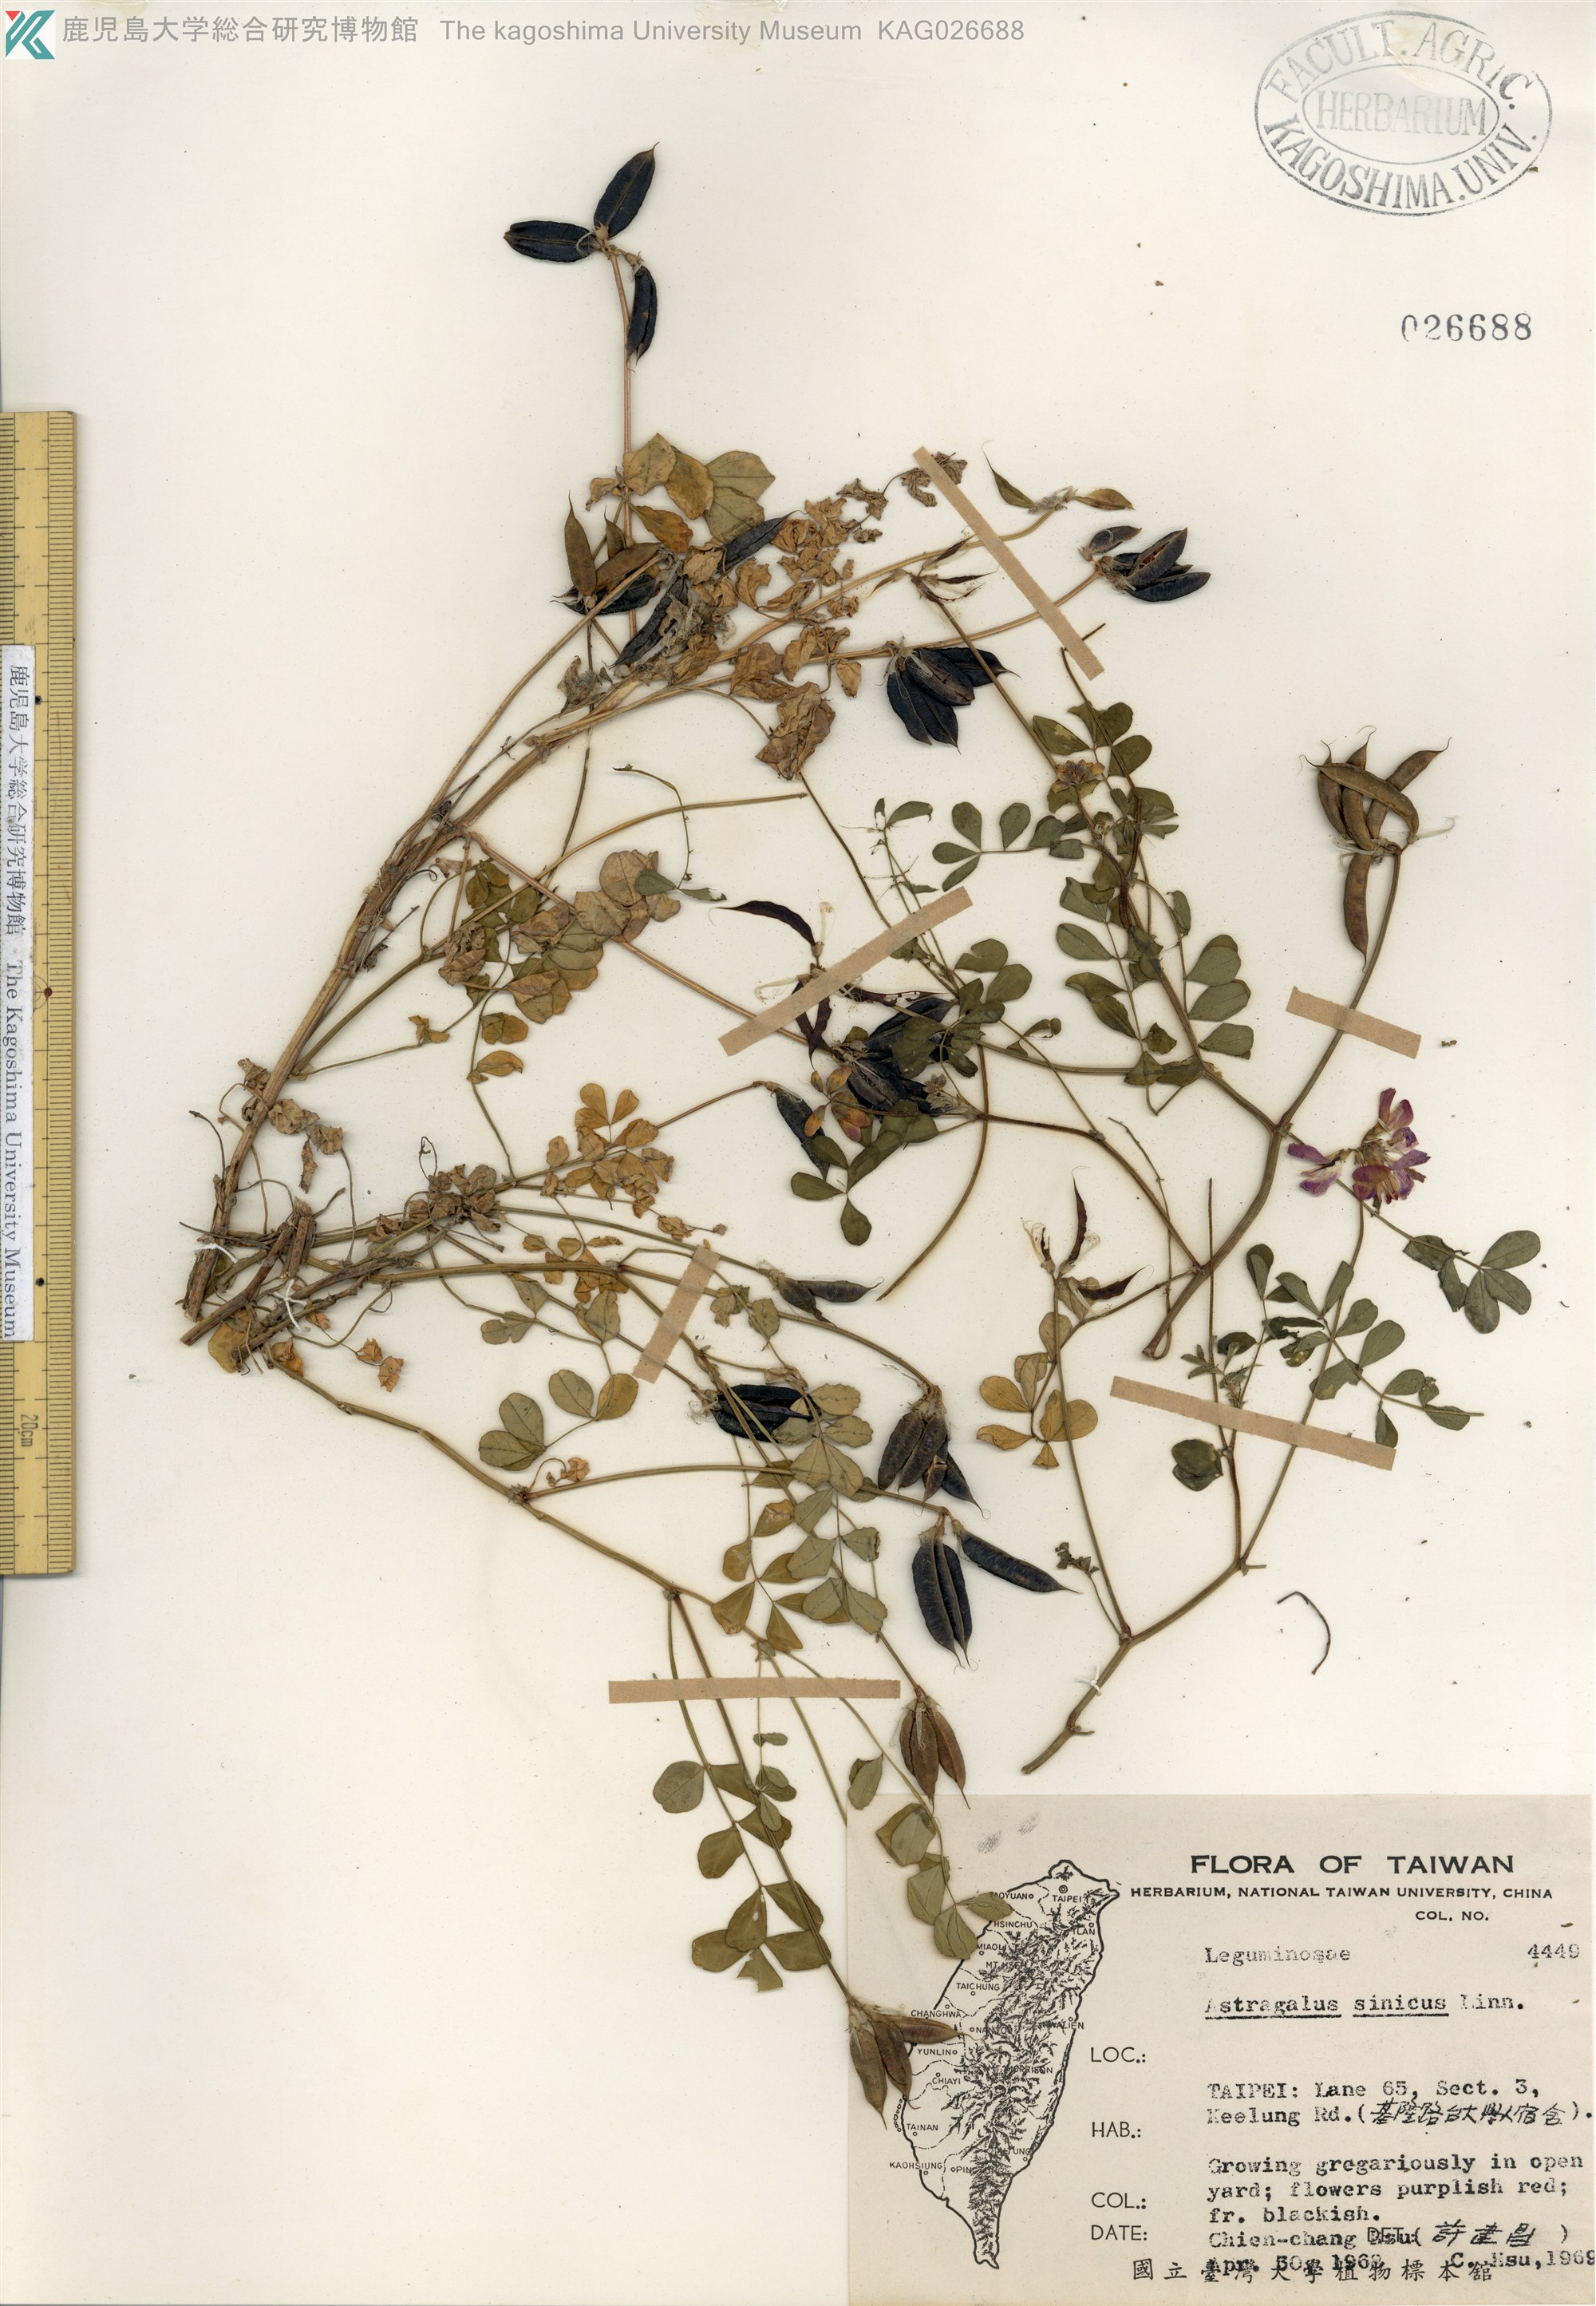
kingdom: Plantae
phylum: Tracheophyta
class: Magnoliopsida
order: Fabales
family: Fabaceae
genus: Astragalus
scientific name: Astragalus sinicus
